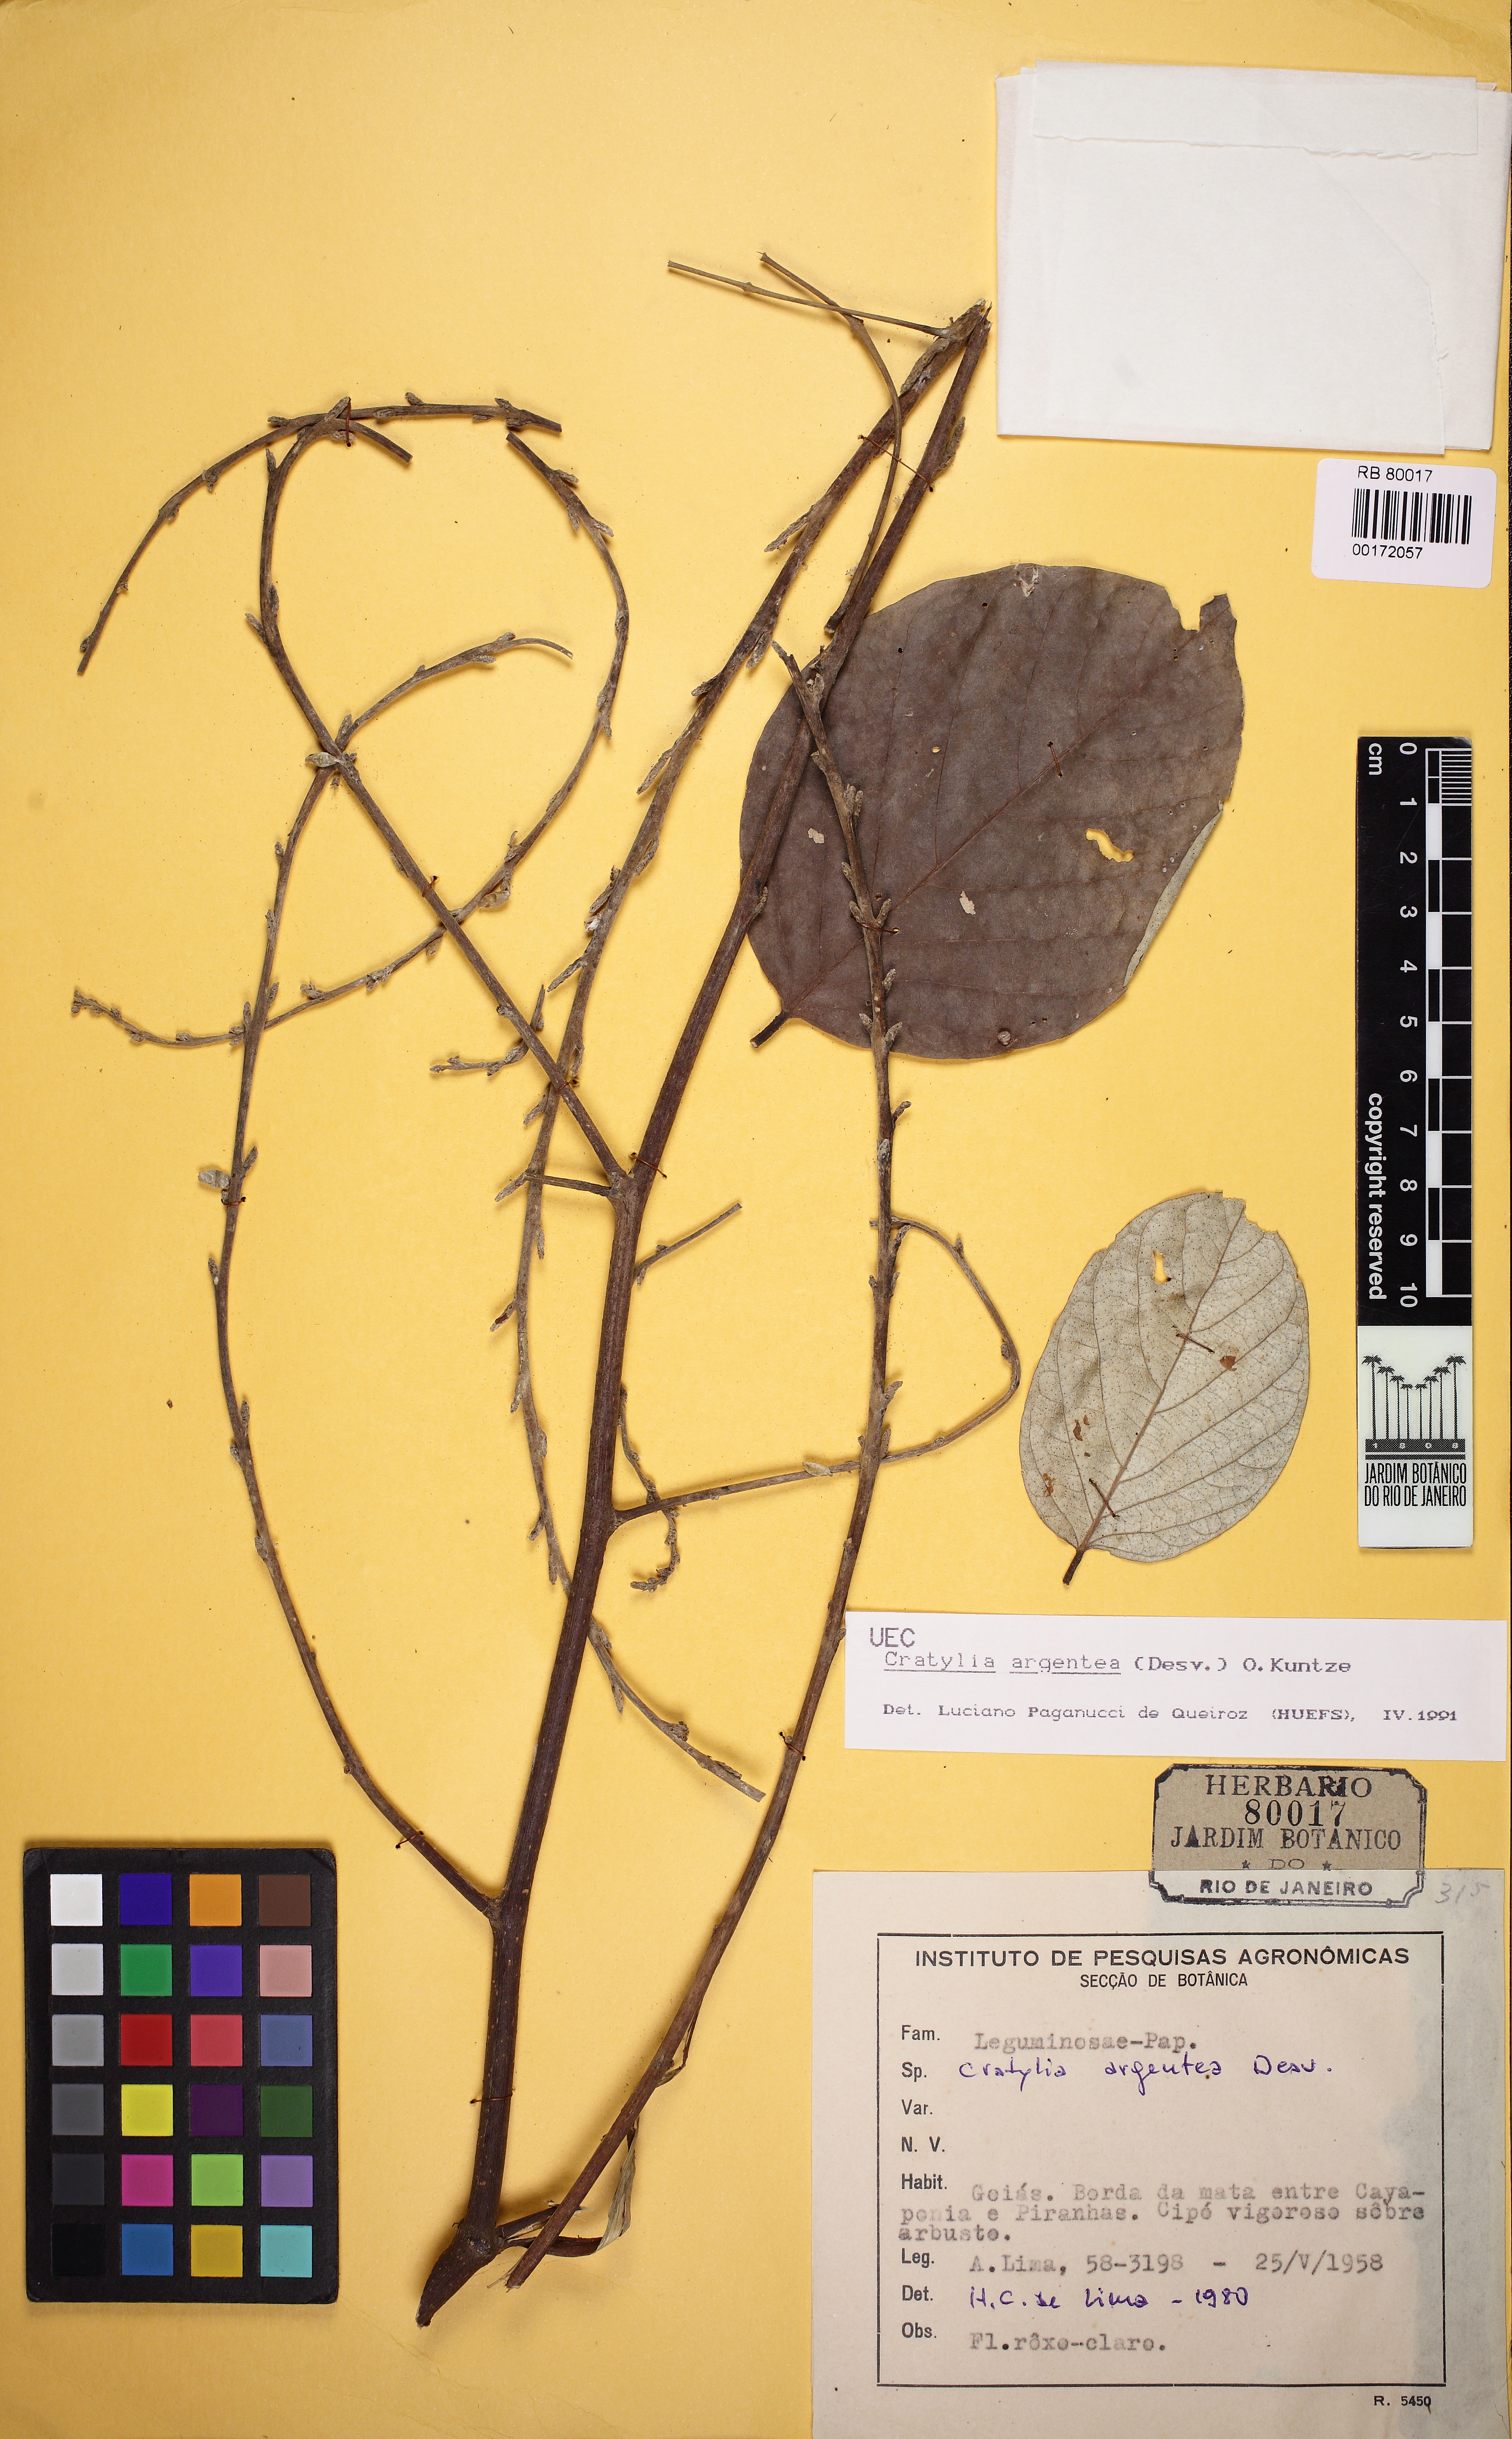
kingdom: Plantae
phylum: Tracheophyta
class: Magnoliopsida
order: Fabales
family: Fabaceae
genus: Cratylia
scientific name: Cratylia argentea
